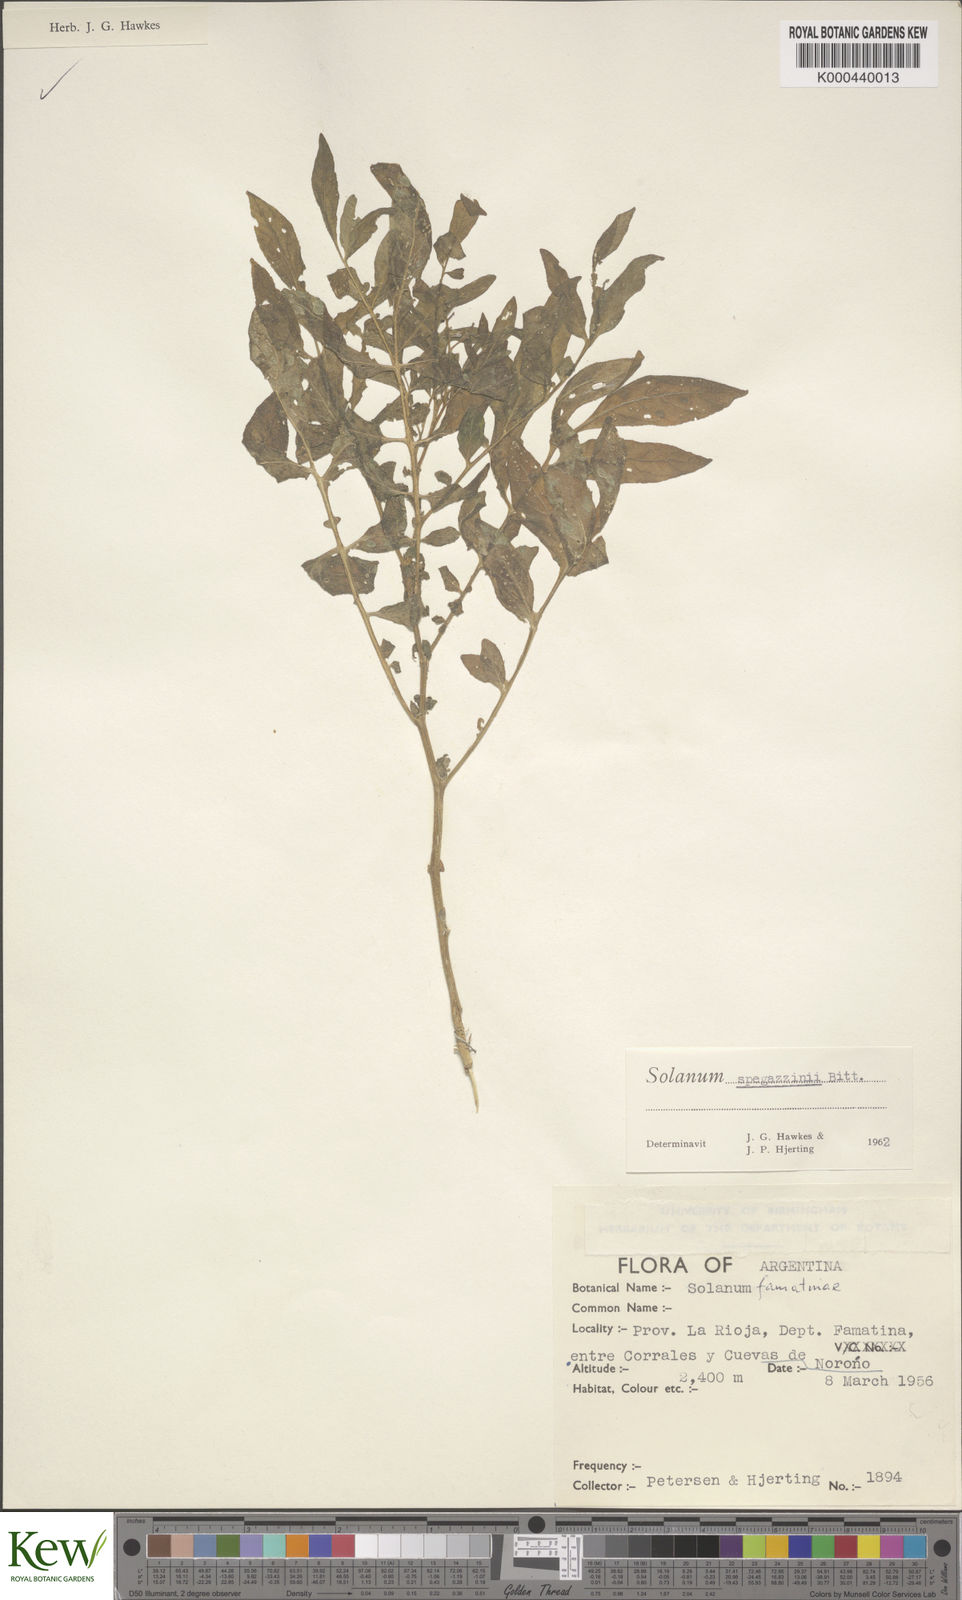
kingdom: Plantae
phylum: Tracheophyta
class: Magnoliopsida
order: Solanales
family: Solanaceae
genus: Solanum
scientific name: Solanum brevicaule
